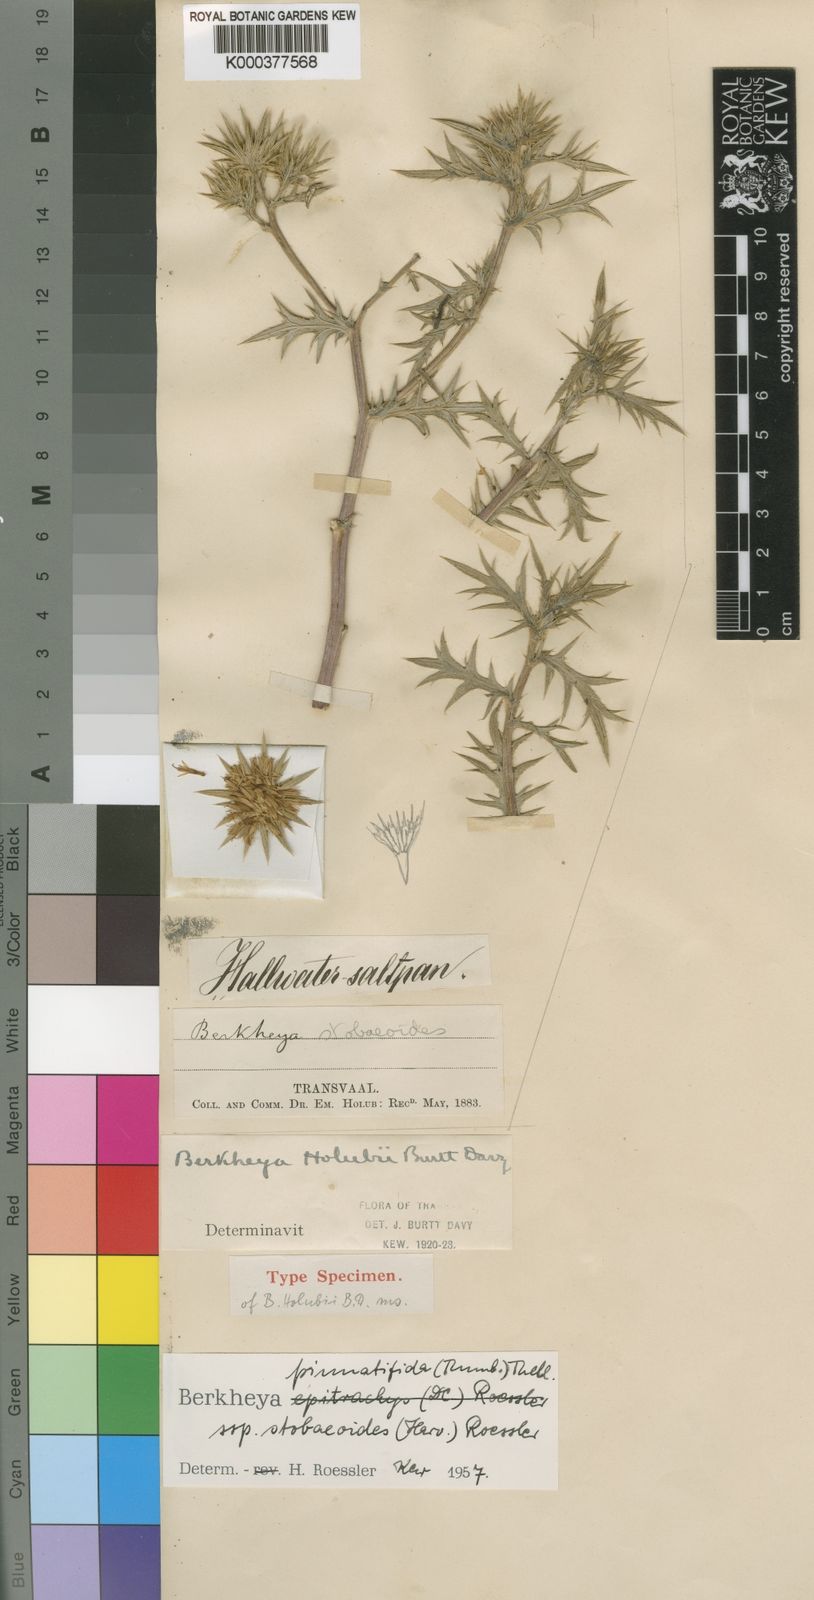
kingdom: Plantae
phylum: Tracheophyta
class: Magnoliopsida
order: Asterales
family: Asteraceae
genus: Berkheya
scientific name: Berkheya pinnatifida
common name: Lobed african thistle
